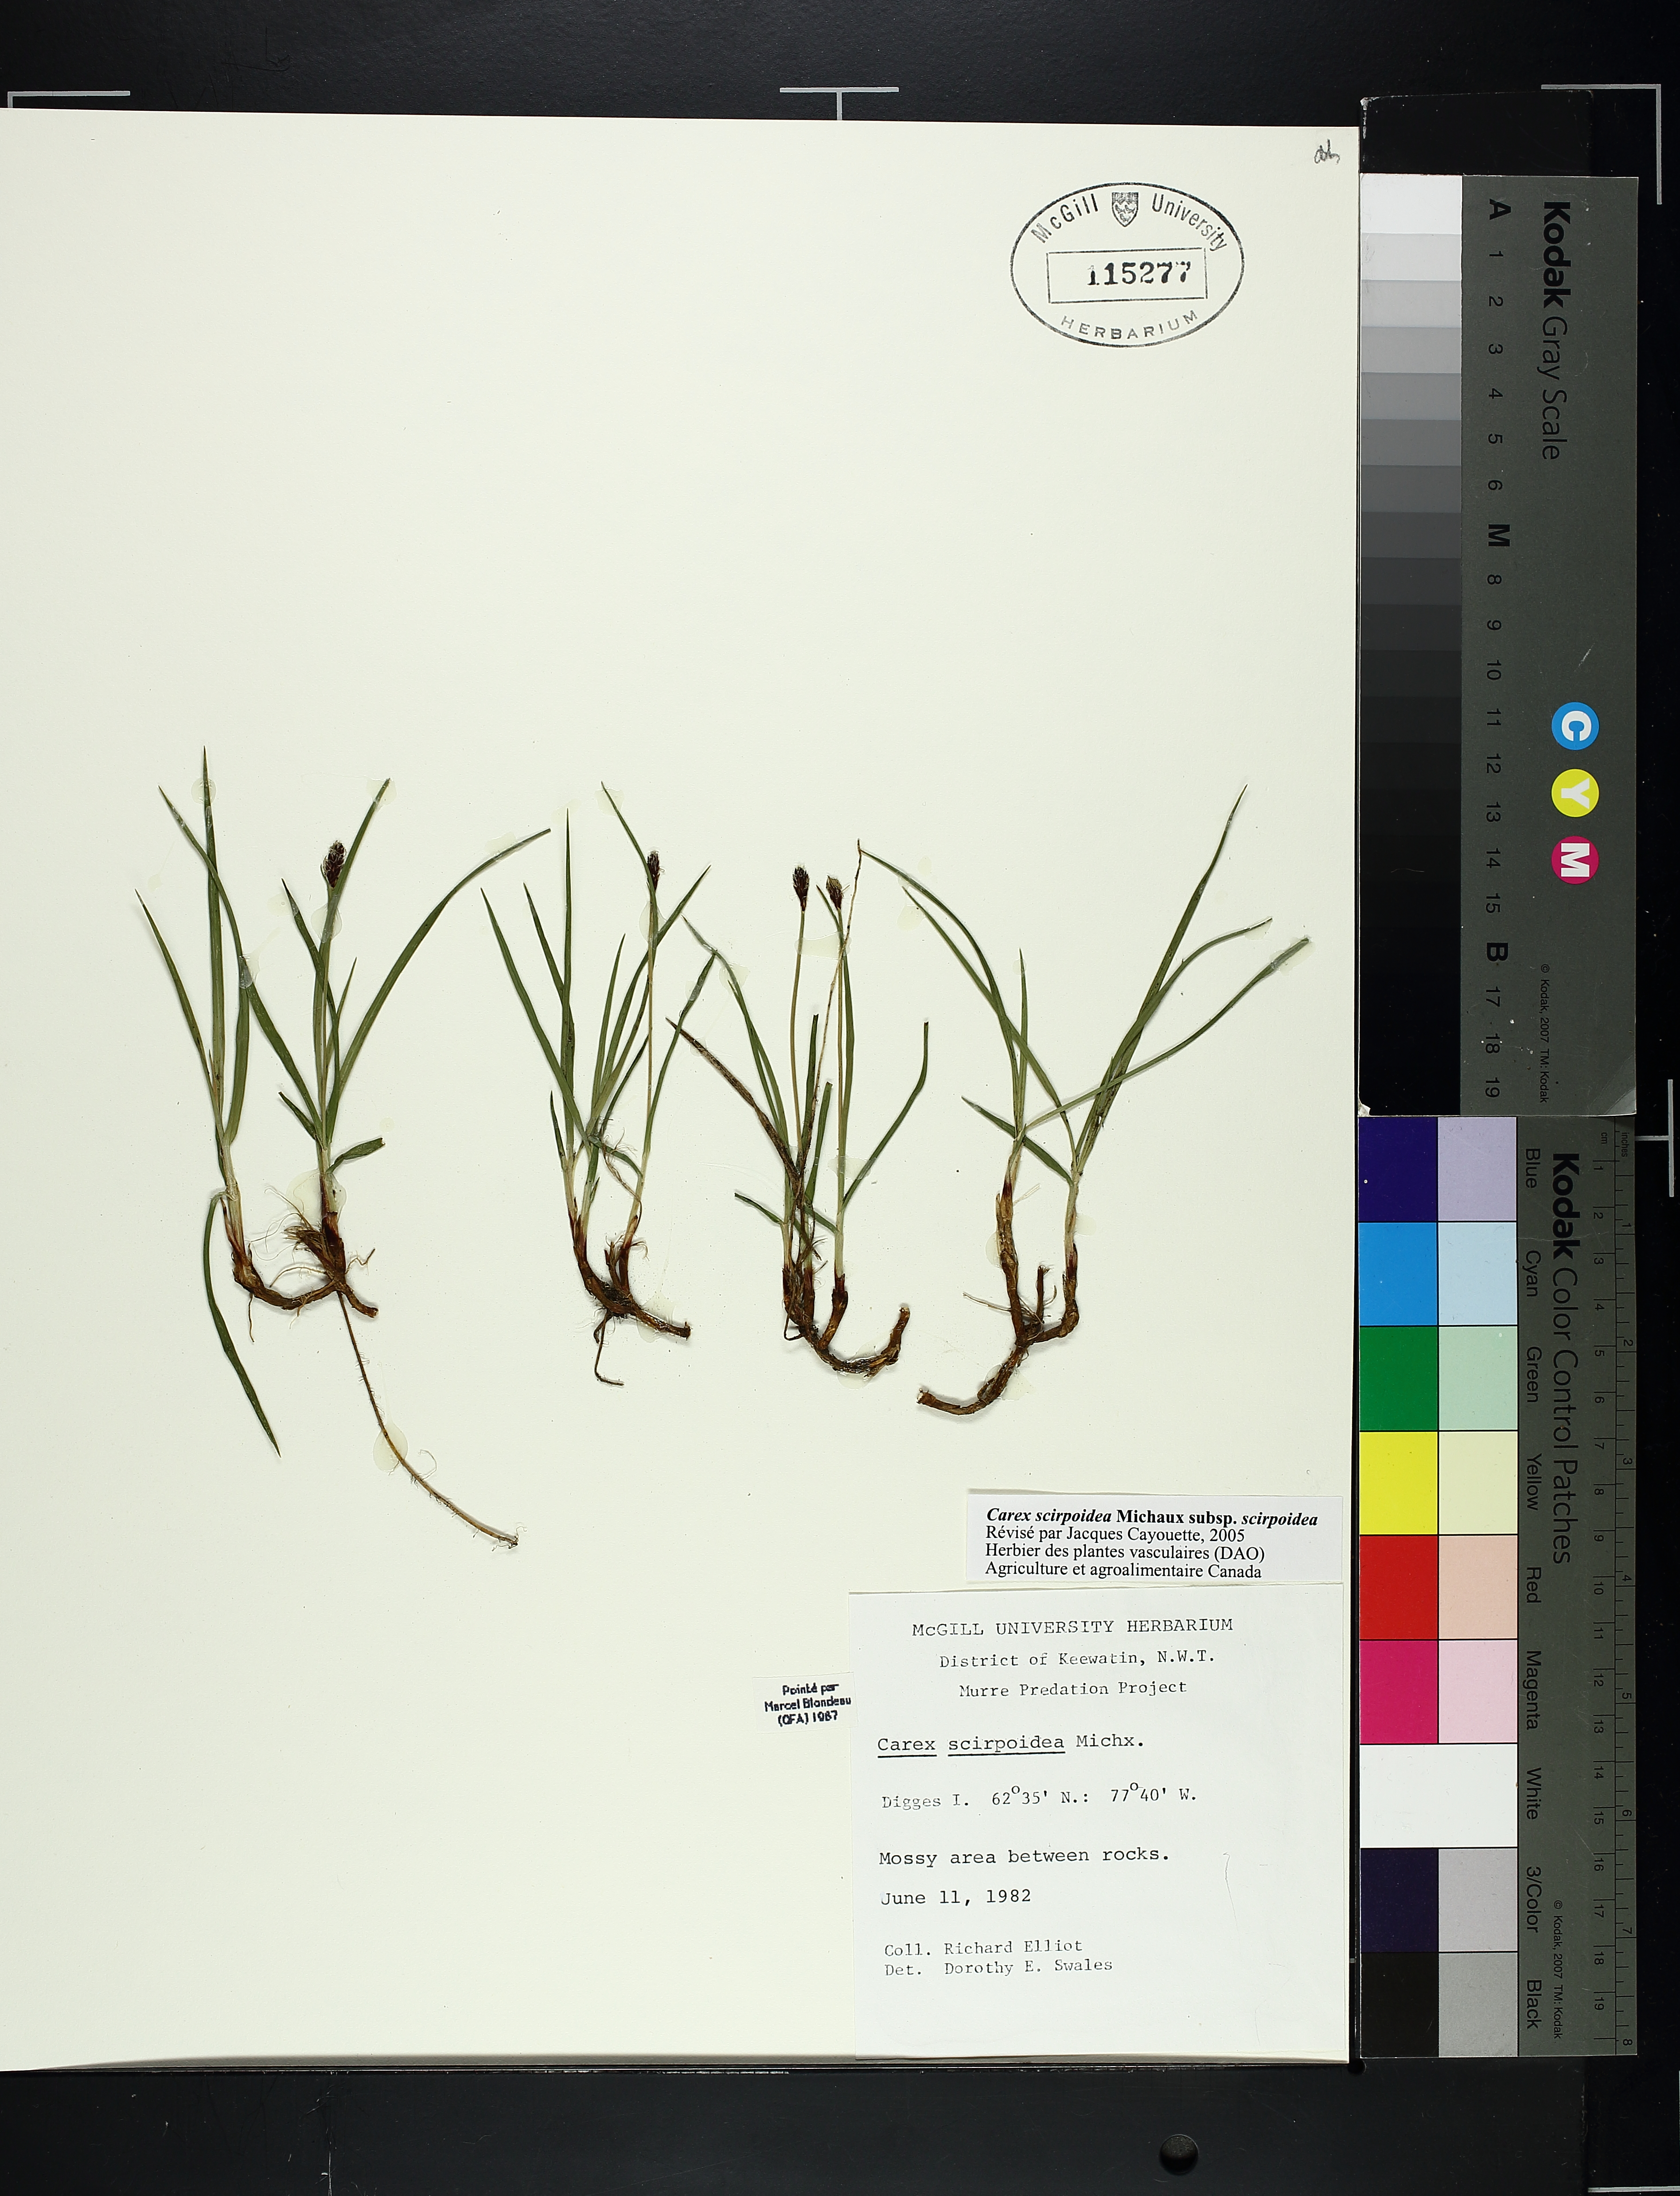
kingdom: Plantae
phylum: Tracheophyta
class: Liliopsida
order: Poales
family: Cyperaceae
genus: Carex
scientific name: Carex scirpoidea
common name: Canada single-spike sedge
